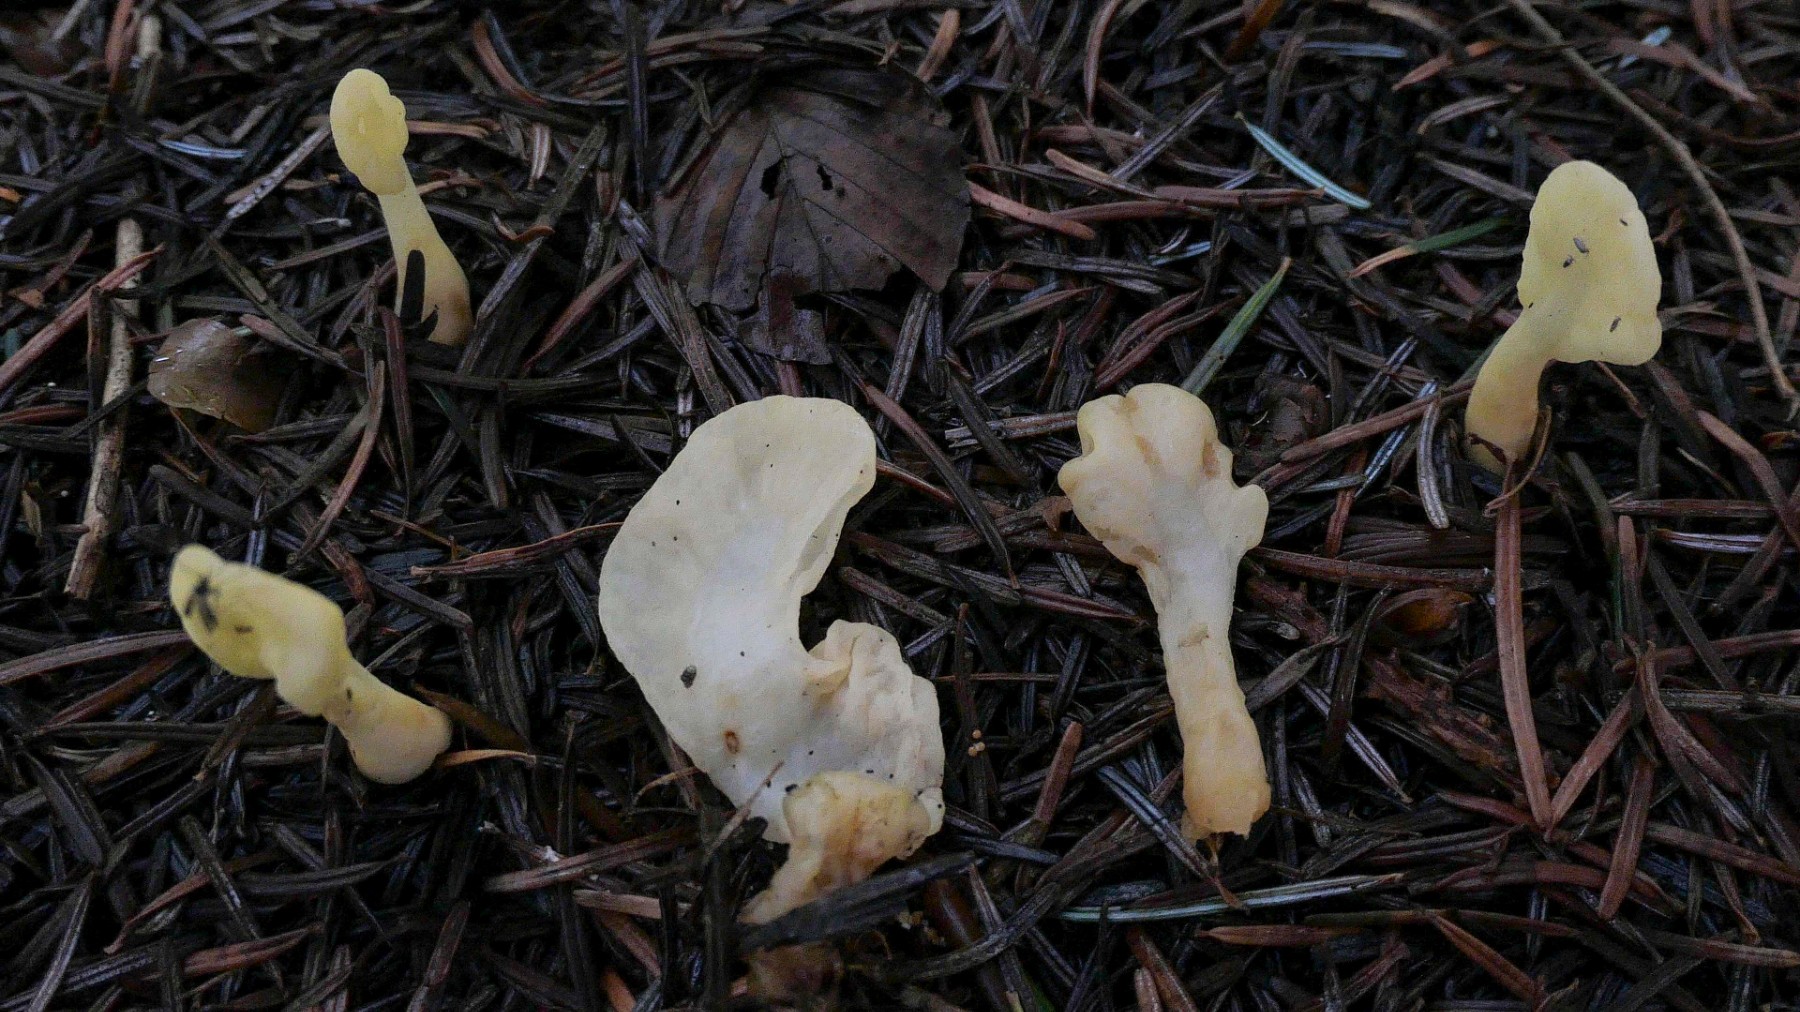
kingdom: Fungi
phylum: Ascomycota
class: Leotiomycetes
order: Rhytismatales
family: Cudoniaceae
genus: Spathularia
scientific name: Spathularia flavida
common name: gul spatelsvamp
